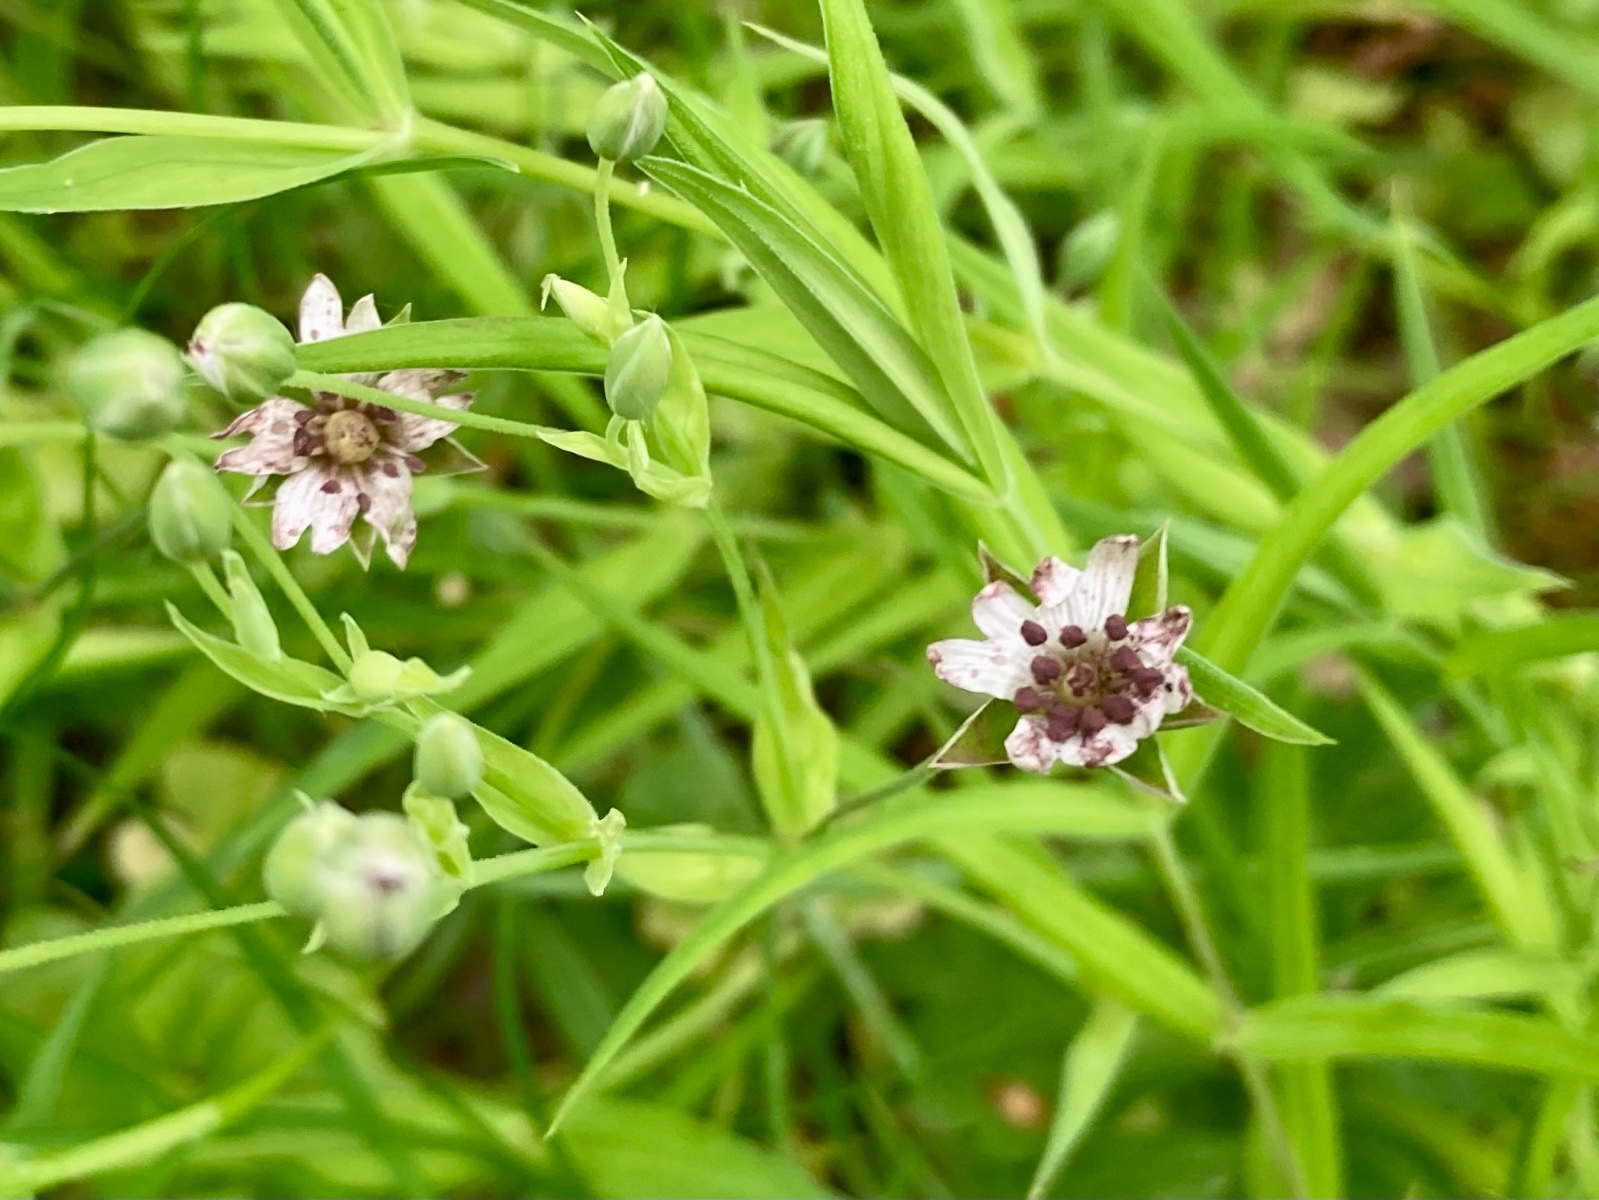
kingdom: Fungi
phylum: Basidiomycota
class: Microbotryomycetes
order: Microbotryales
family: Microbotryaceae
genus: Microbotryum
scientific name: Microbotryum stellariae
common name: fladstjerne-støvbladrust
